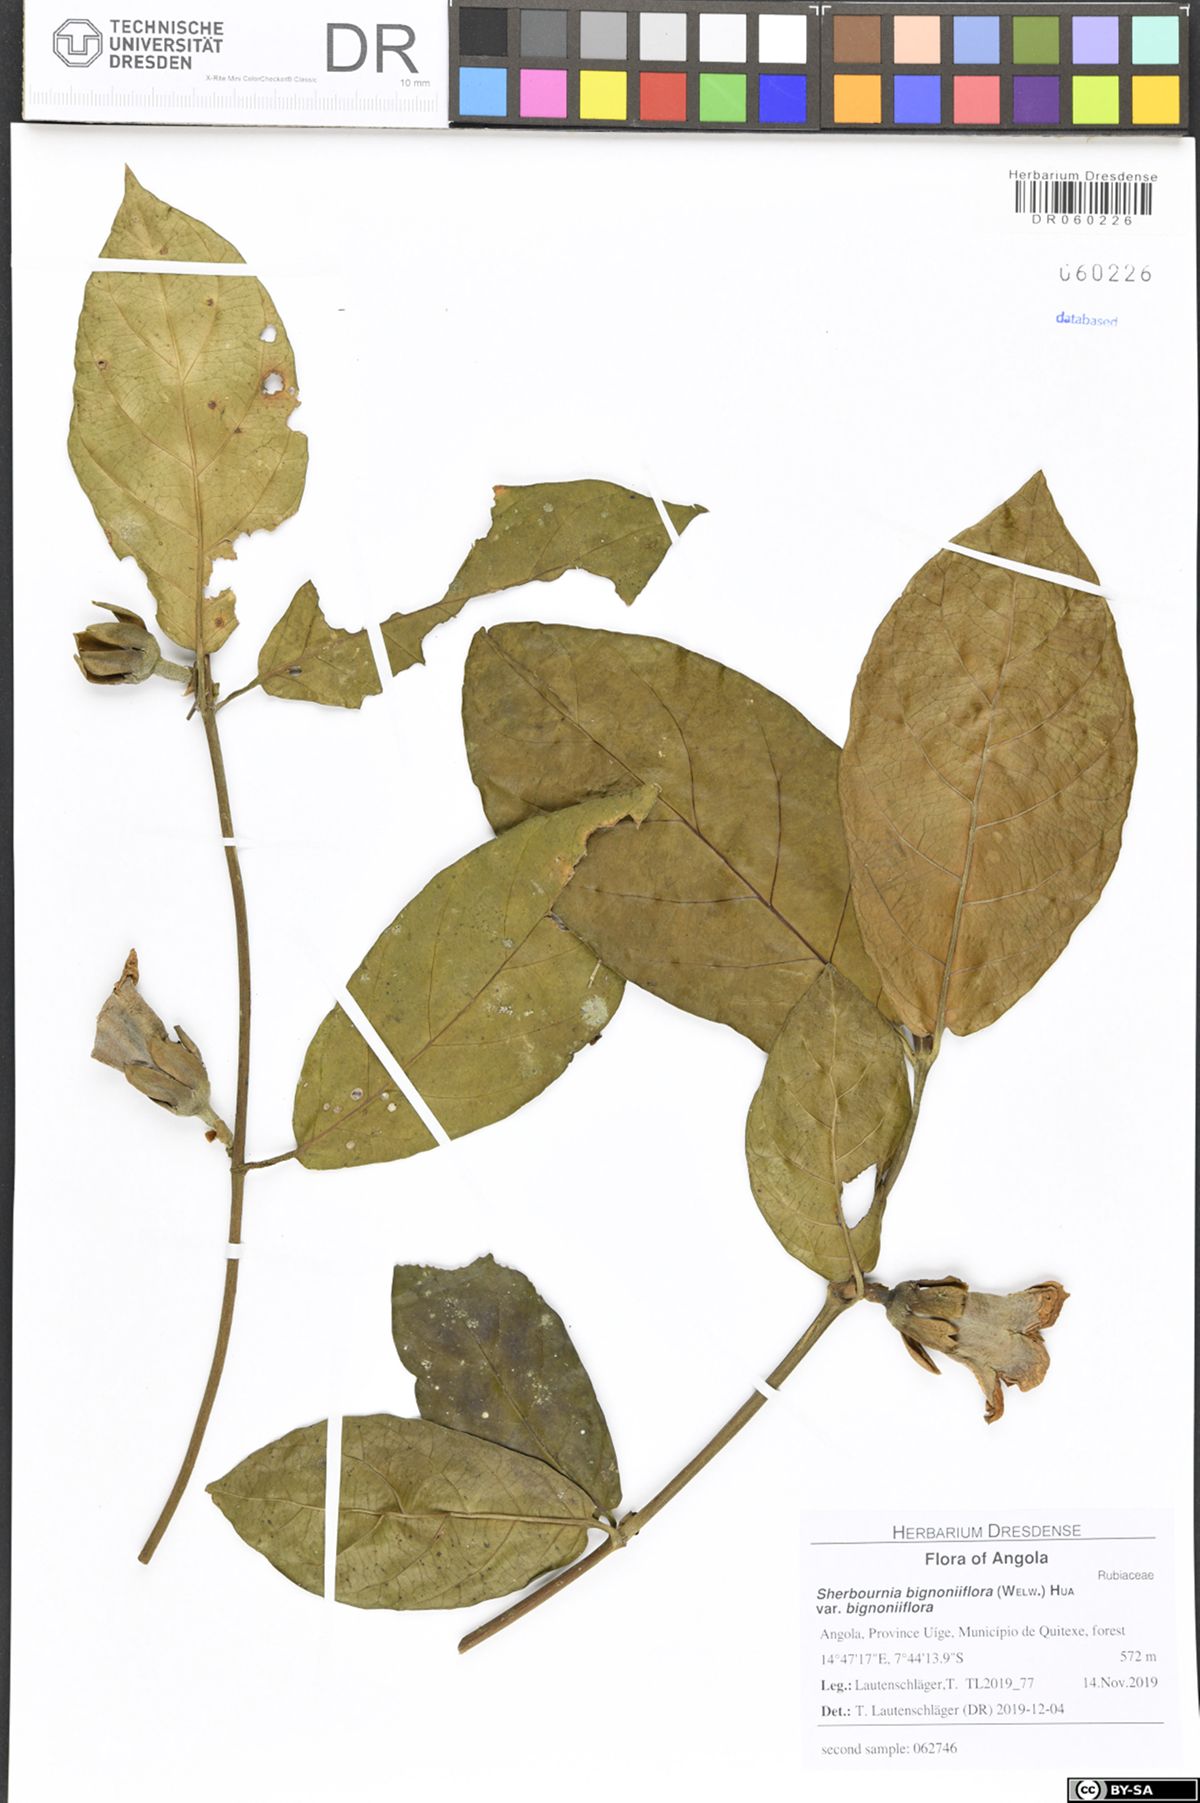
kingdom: Plantae
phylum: Tracheophyta
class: Magnoliopsida
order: Gentianales
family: Rubiaceae
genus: Sherbournia
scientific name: Sherbournia bignoniiflora
